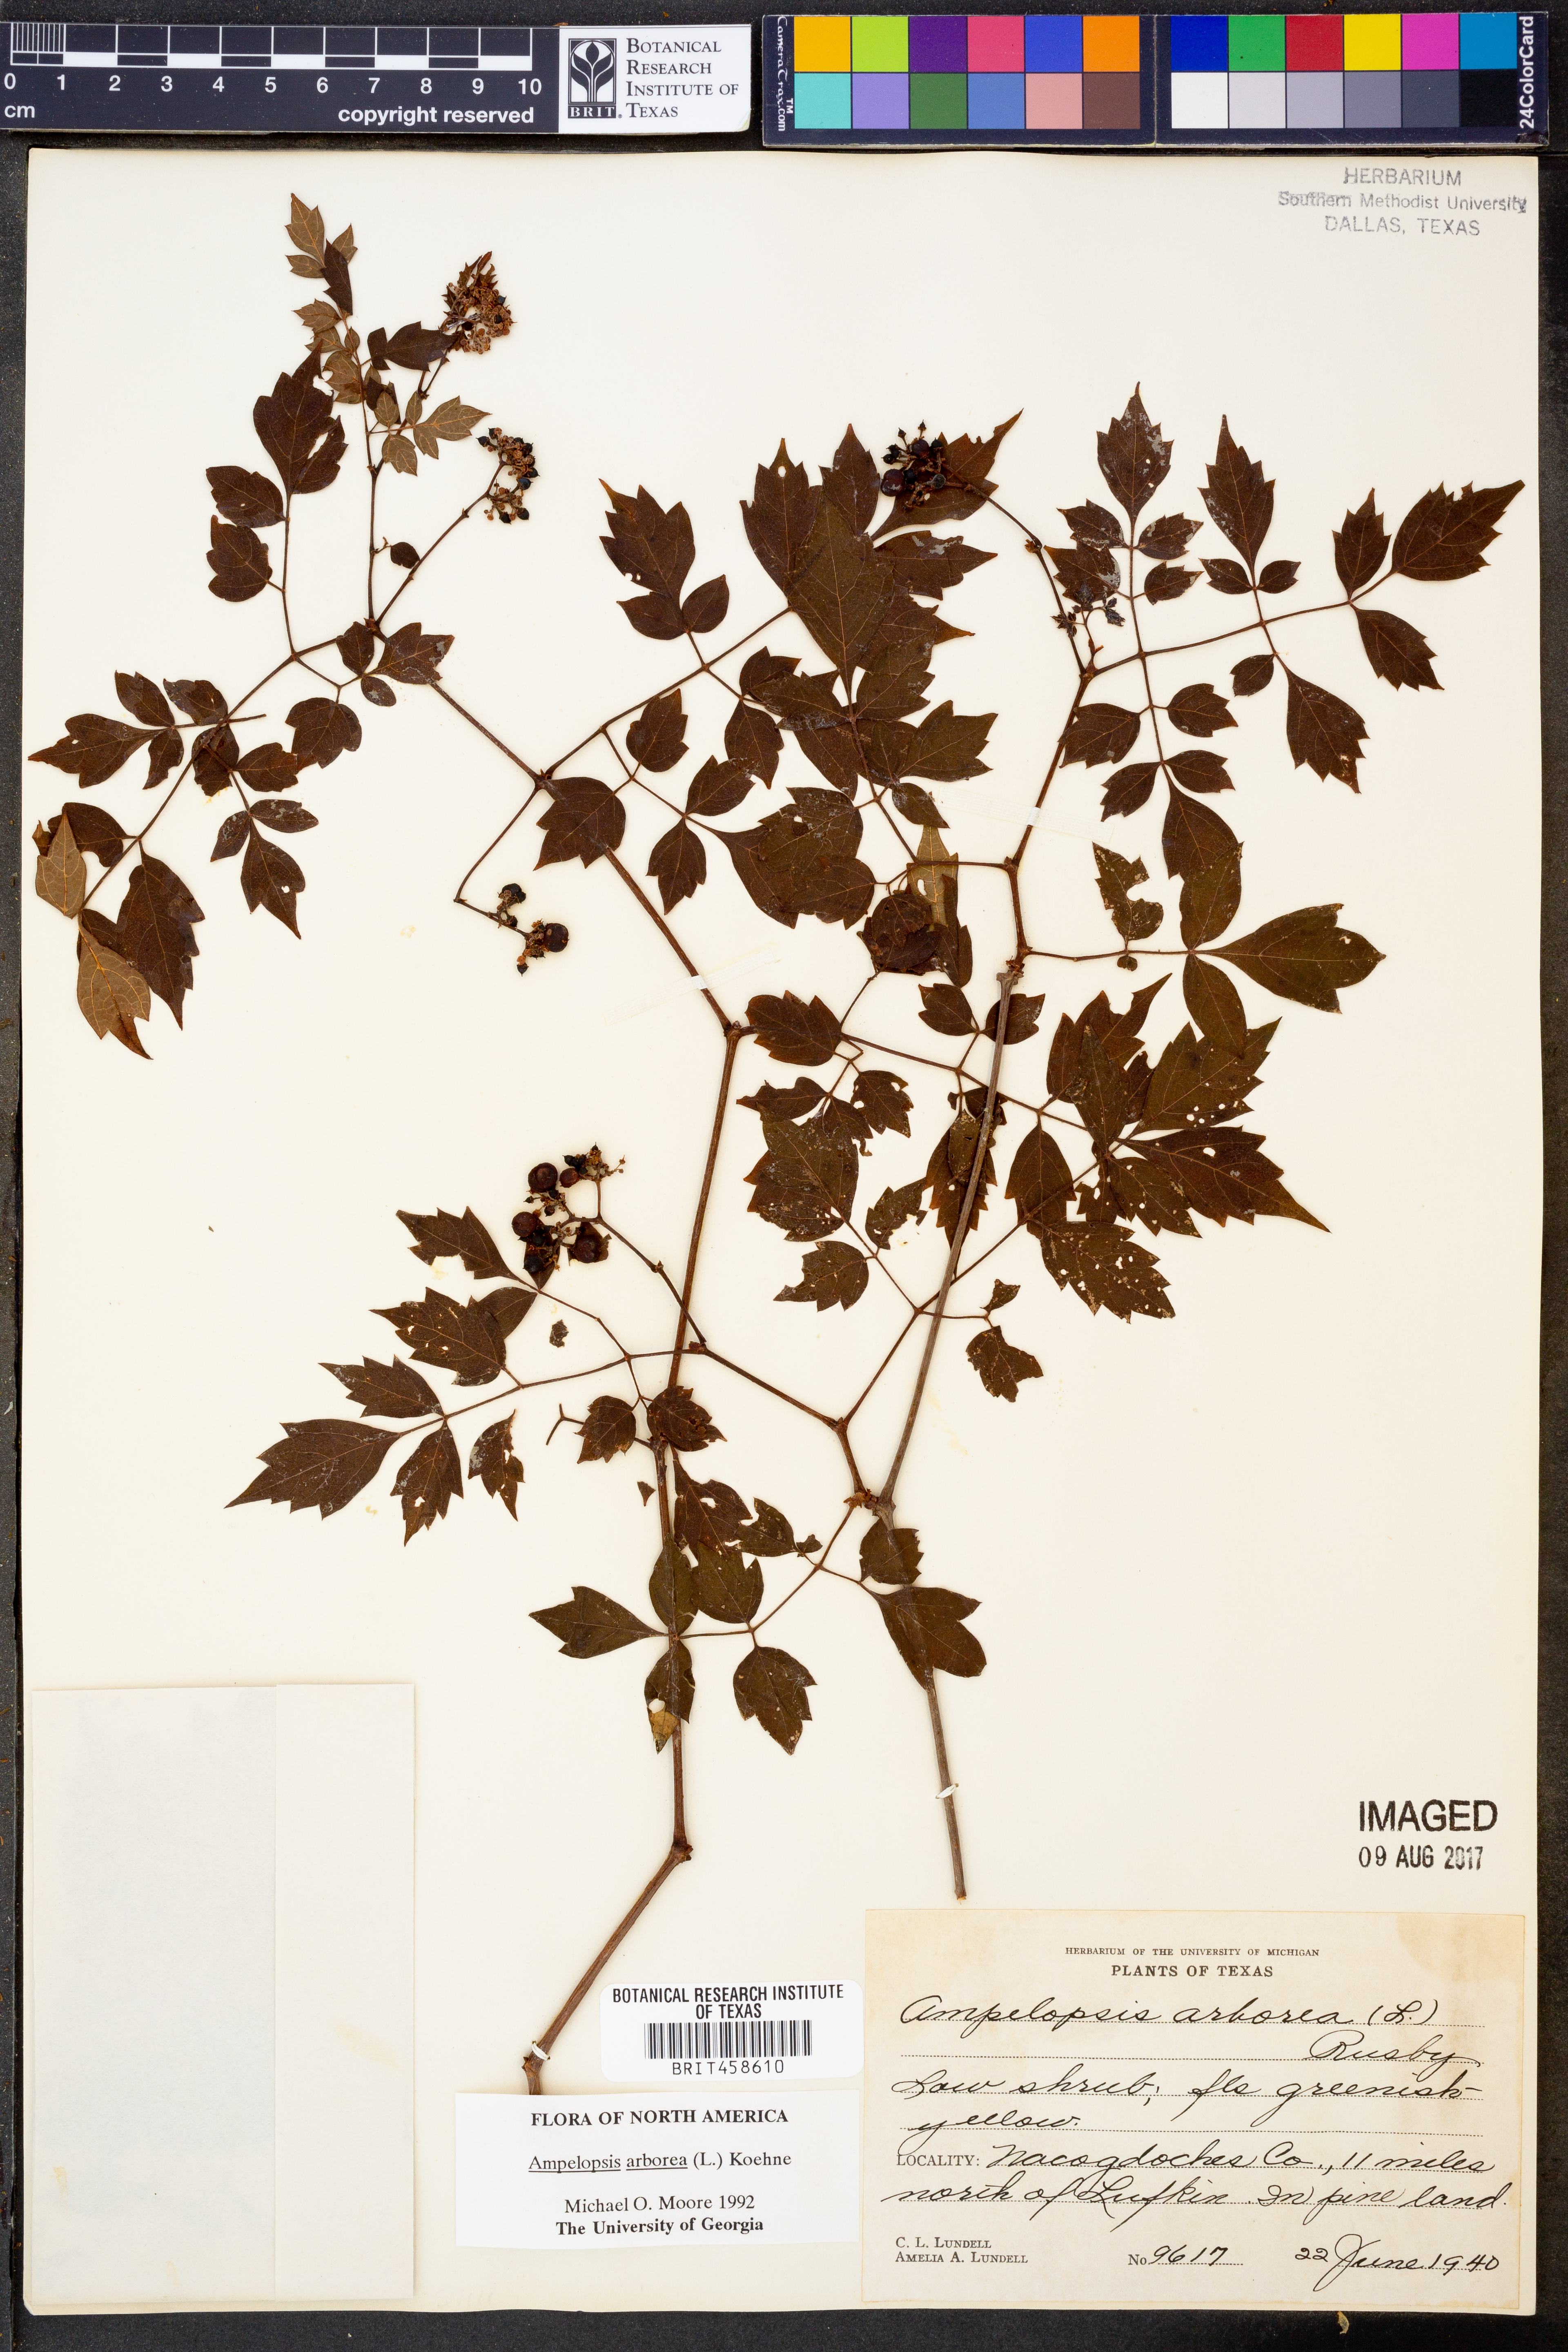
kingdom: Plantae
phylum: Tracheophyta
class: Magnoliopsida
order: Vitales
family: Vitaceae
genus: Nekemias
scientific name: Nekemias arborea
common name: Peppervine
